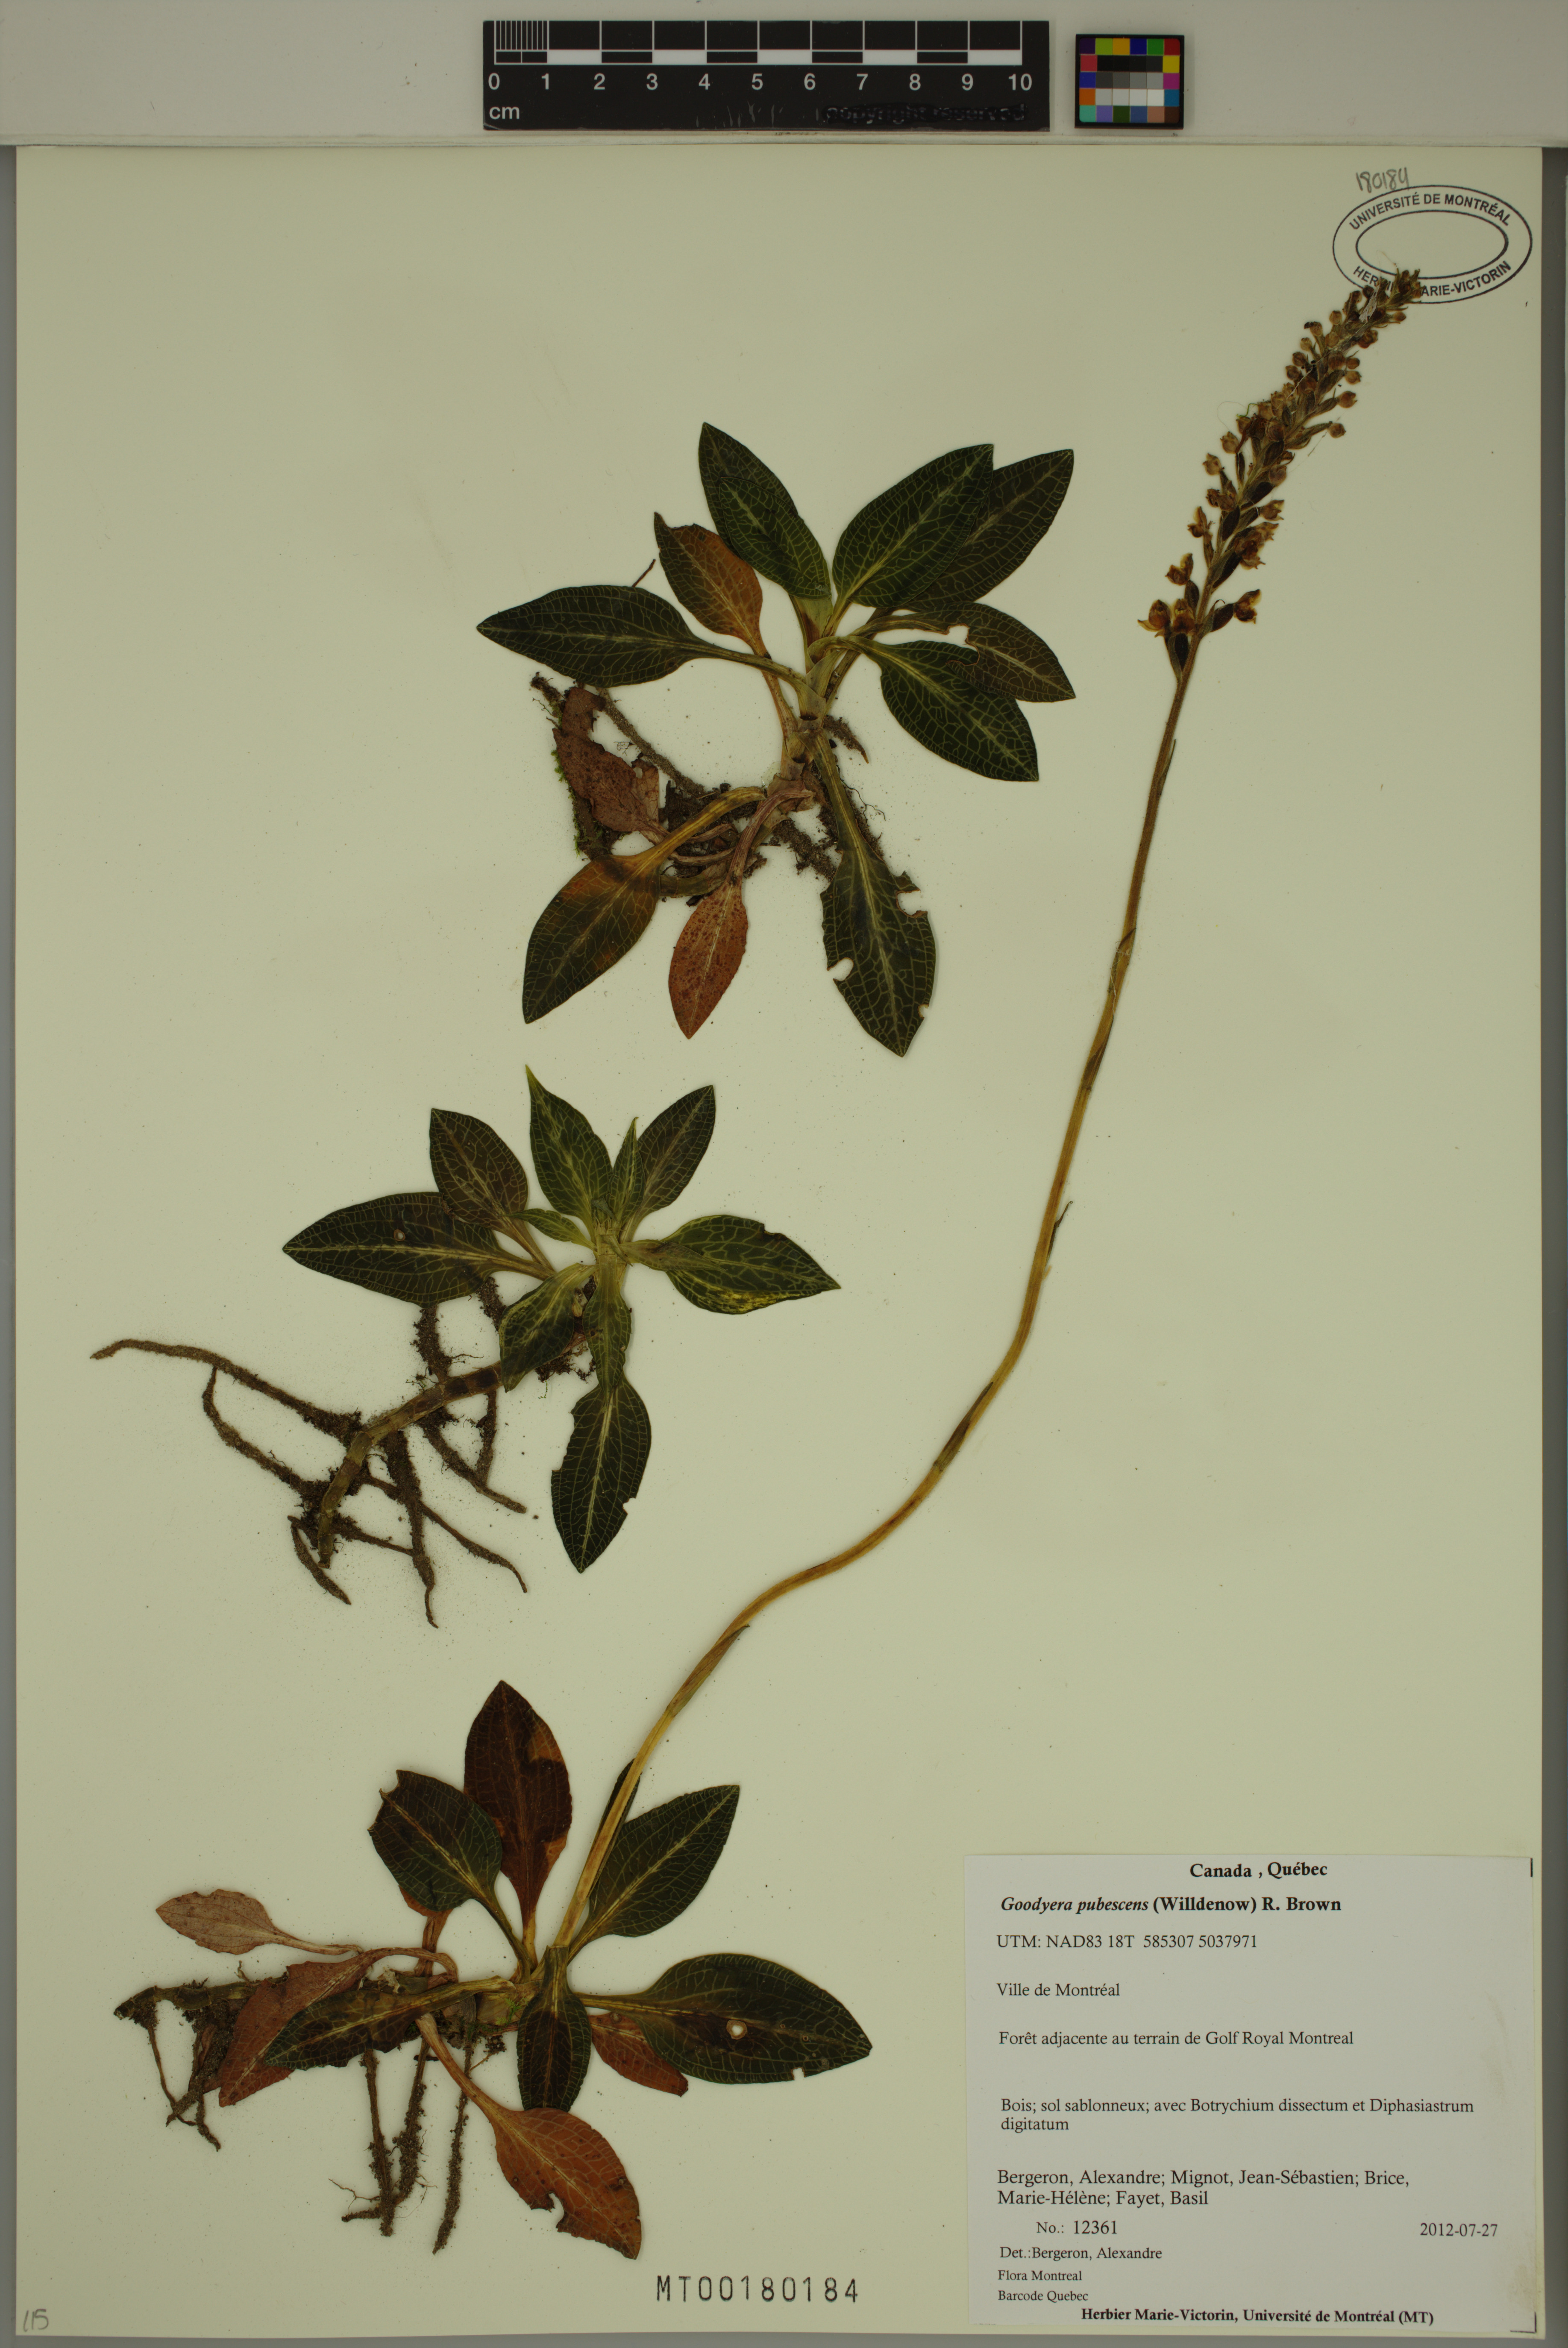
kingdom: Plantae
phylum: Tracheophyta
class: Liliopsida
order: Asparagales
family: Orchidaceae
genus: Goodyera
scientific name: Goodyera pubescens
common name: Downy rattlesnake-plantain
